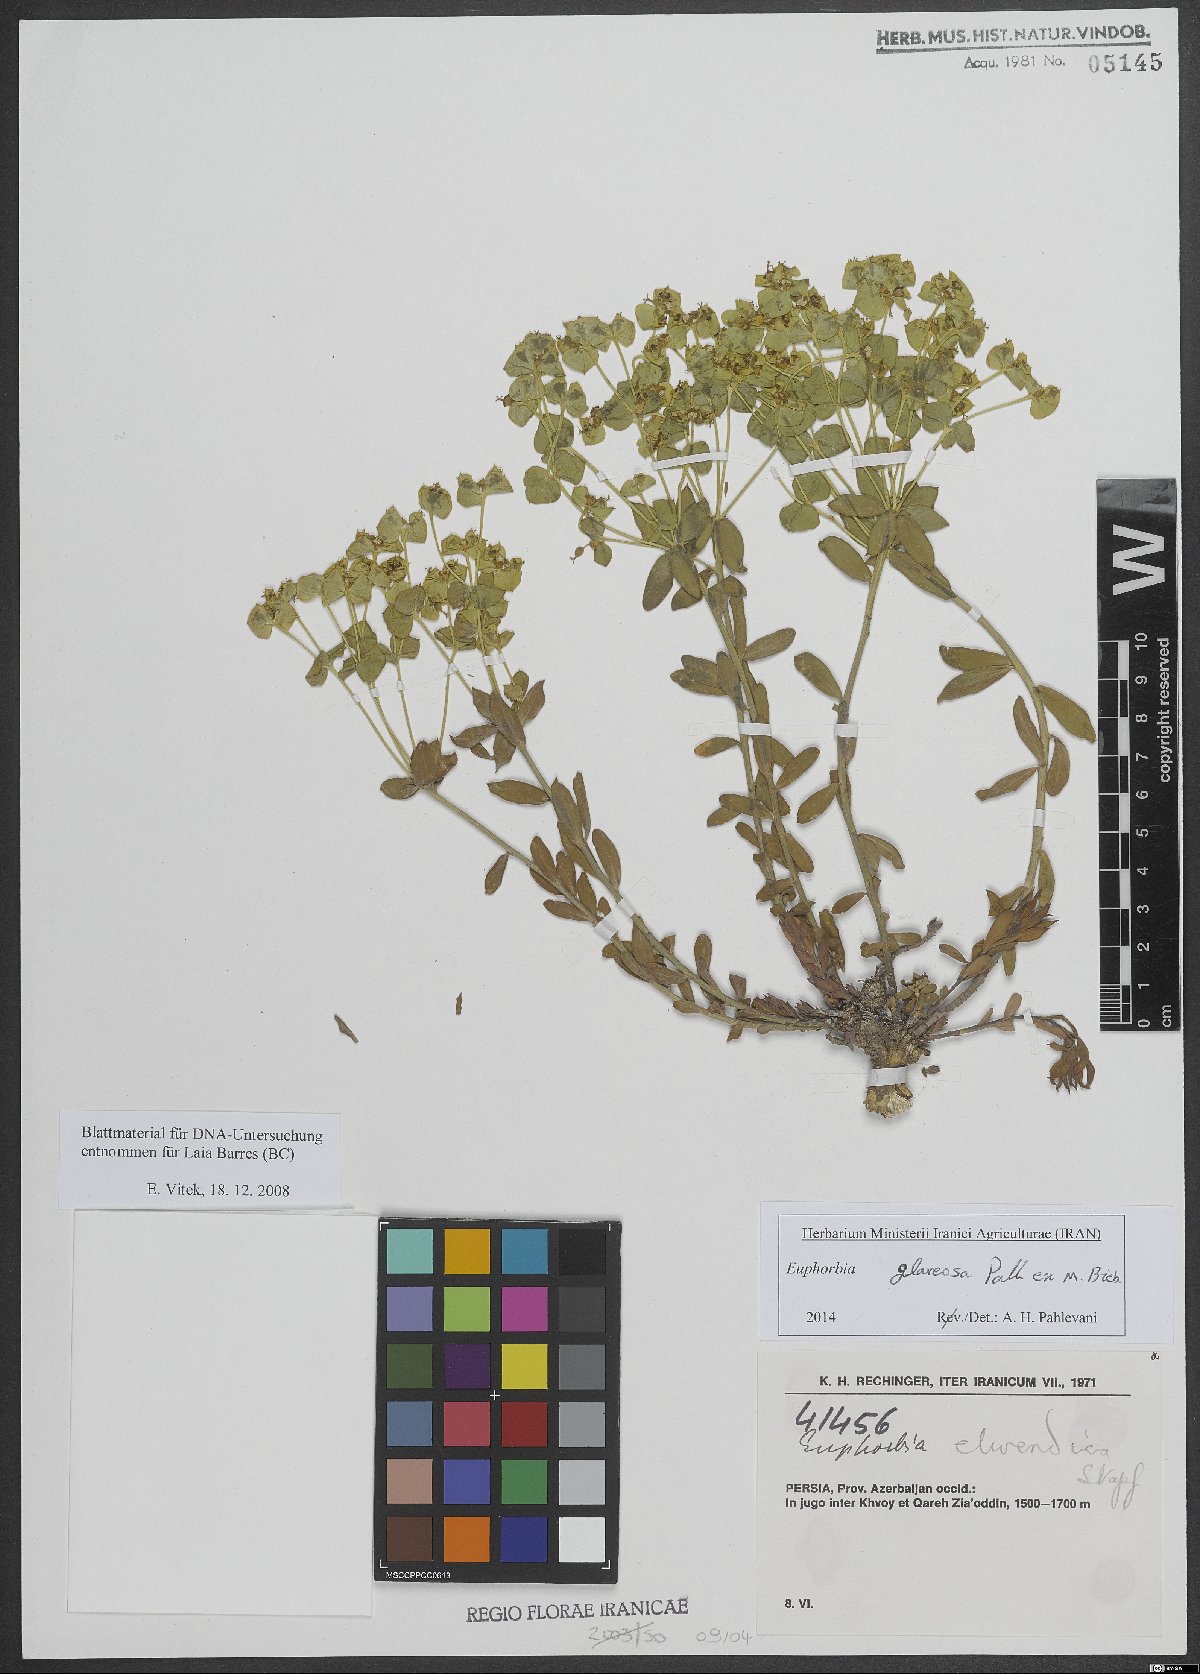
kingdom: Plantae
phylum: Tracheophyta
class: Magnoliopsida
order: Malpighiales
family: Euphorbiaceae
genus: Euphorbia
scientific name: Euphorbia glareosa
